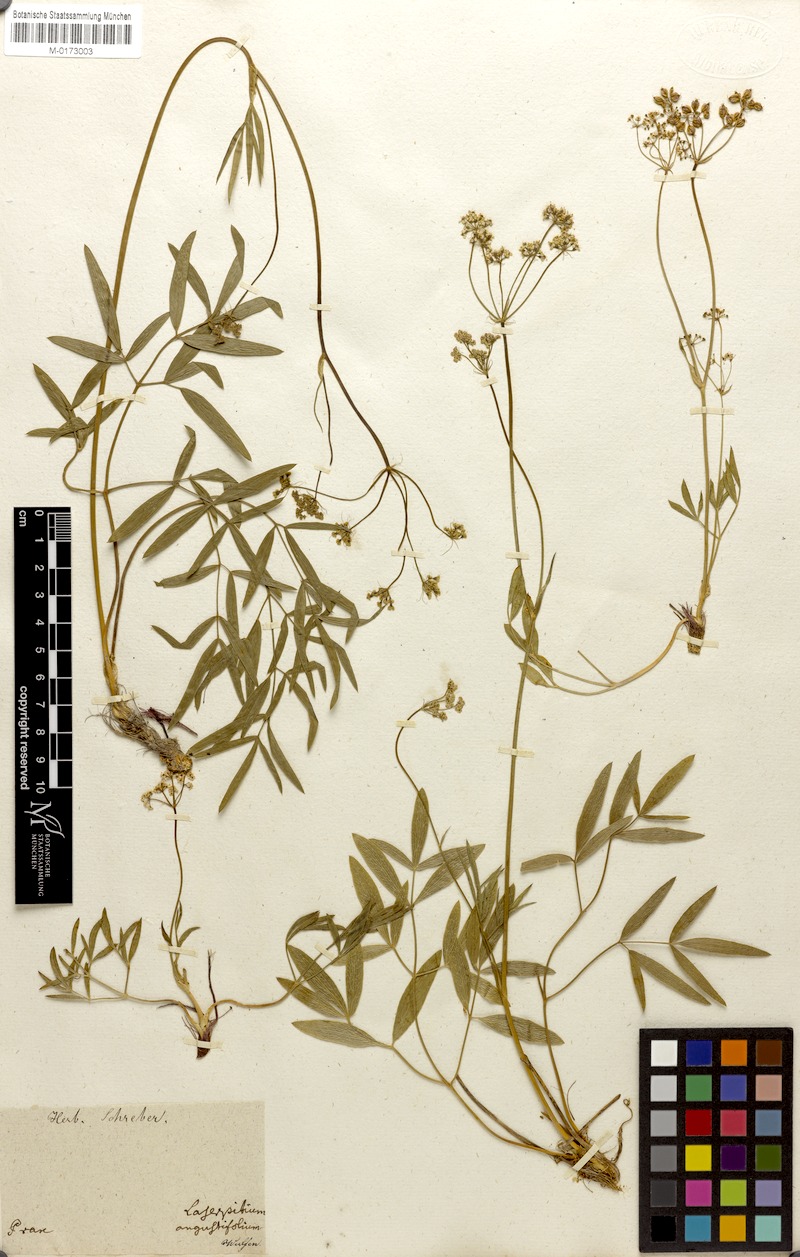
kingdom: Plantae
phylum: Tracheophyta
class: Magnoliopsida
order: Apiales
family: Apiaceae
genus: Laserpitium
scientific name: Laserpitium peucedanoides
